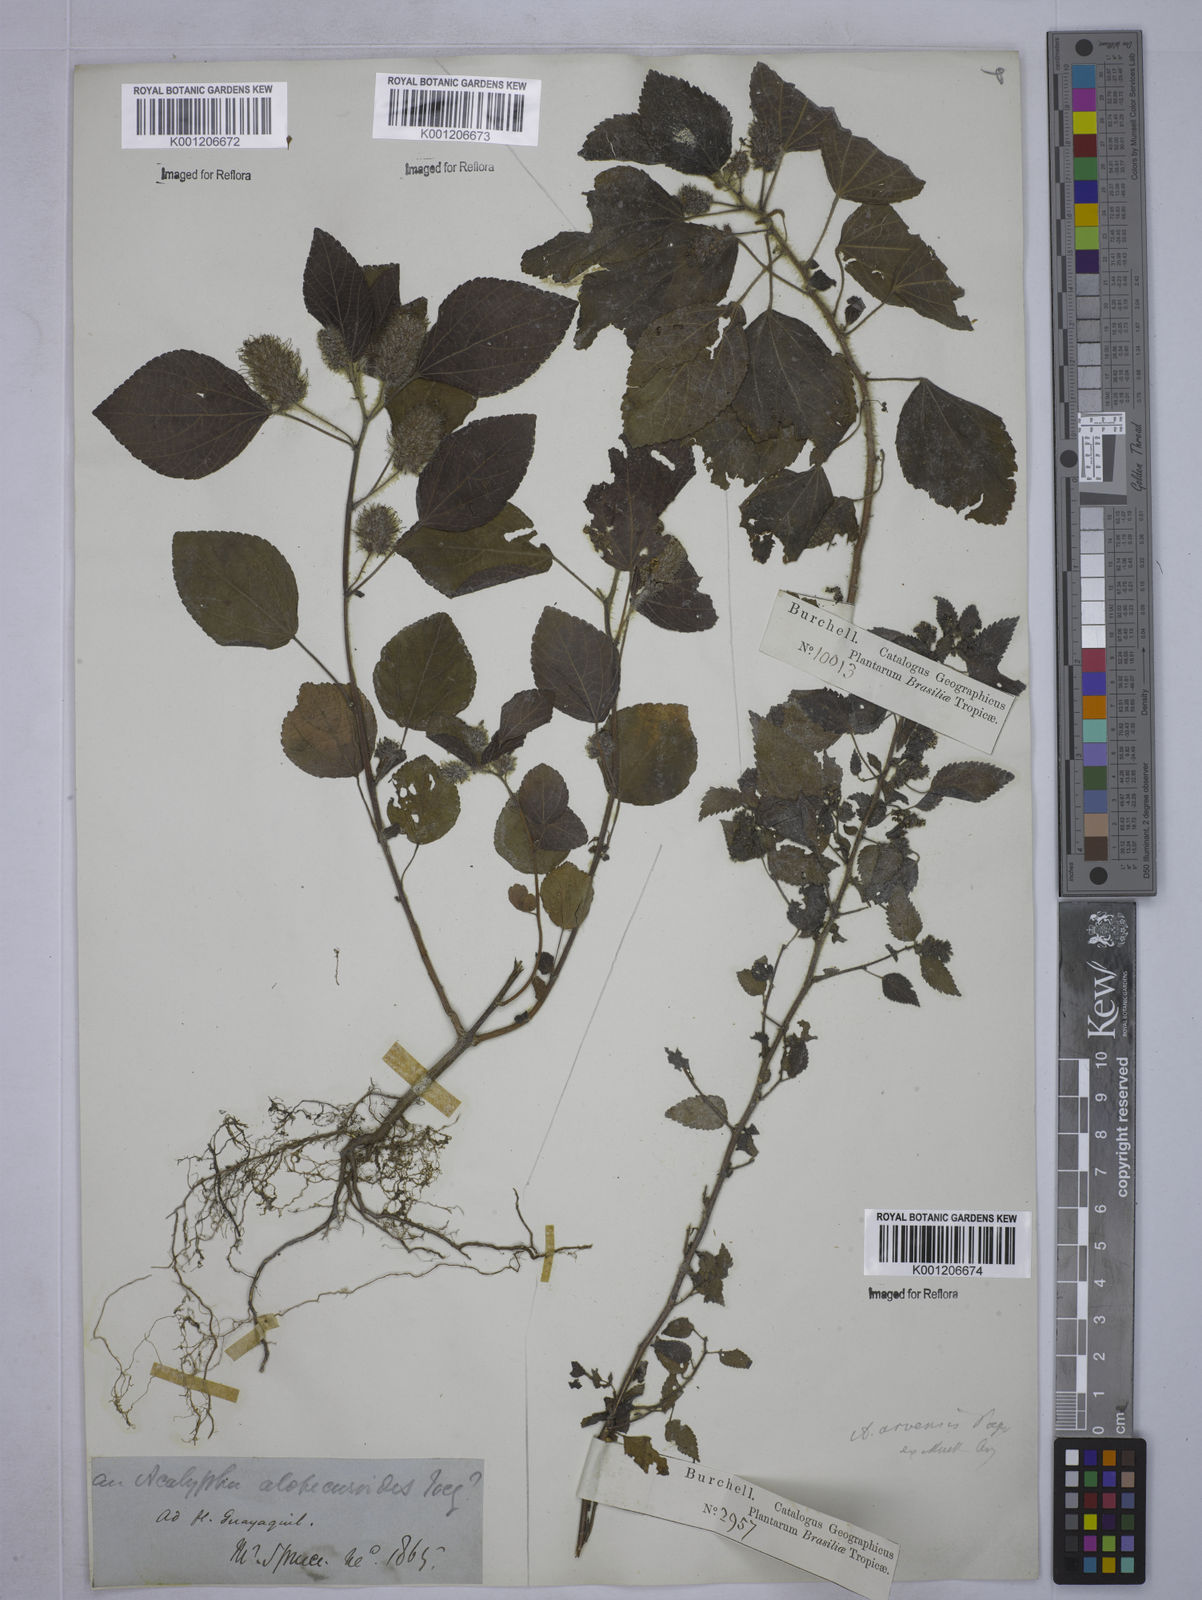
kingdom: Plantae
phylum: Tracheophyta
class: Magnoliopsida
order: Malpighiales
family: Euphorbiaceae
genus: Acalypha
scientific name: Acalypha arvensis
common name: Field copperleaf
